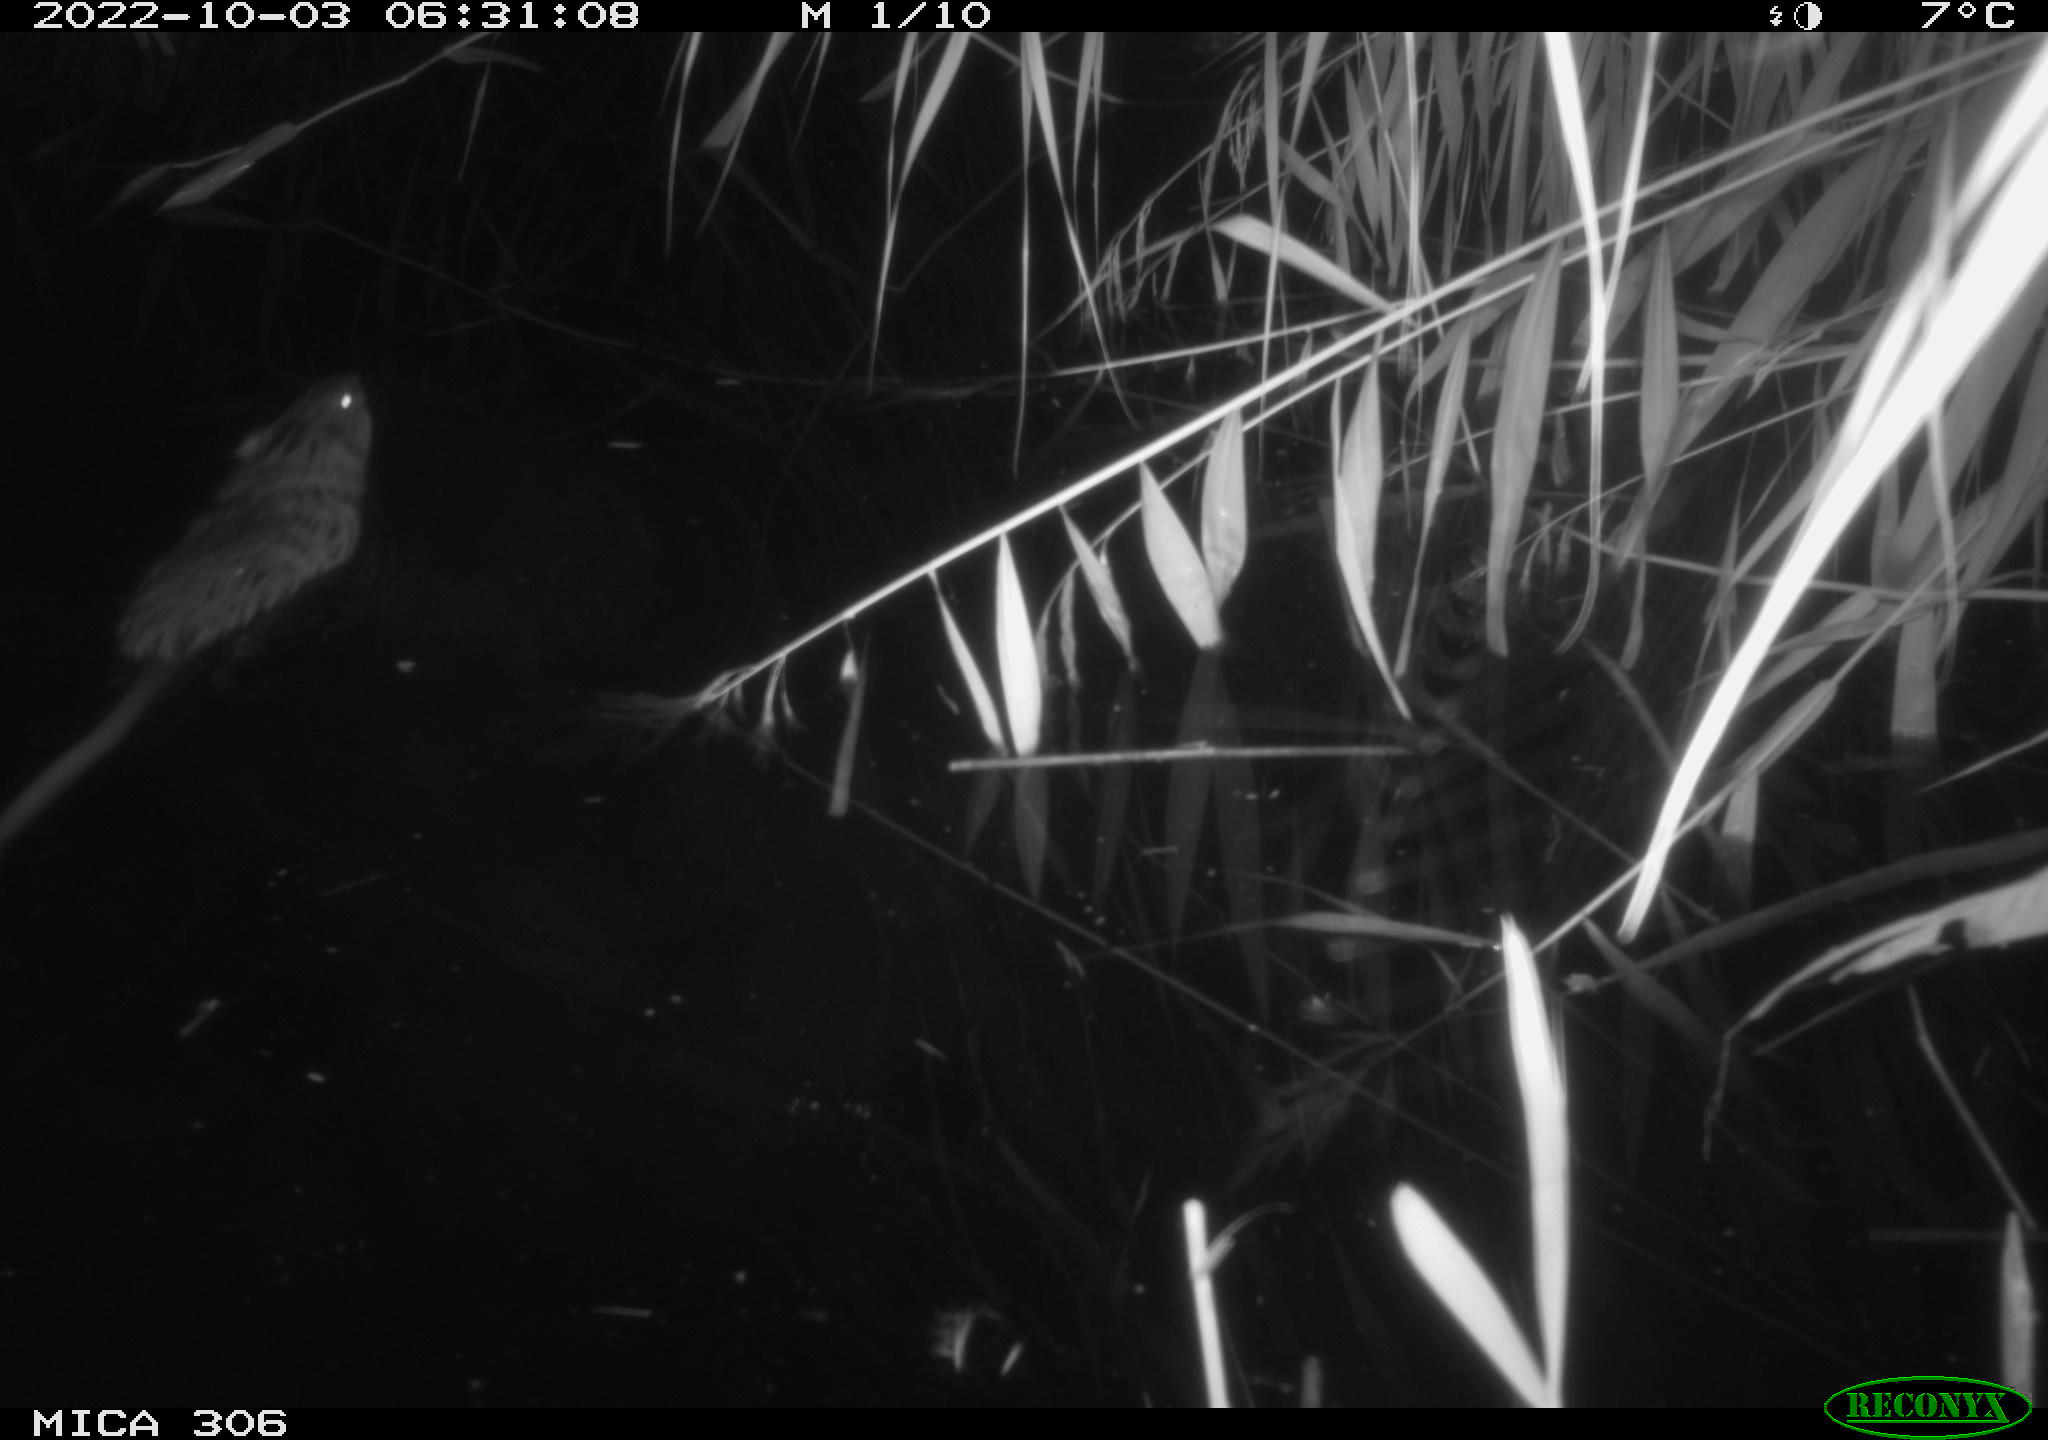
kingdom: Animalia
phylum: Chordata
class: Mammalia
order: Rodentia
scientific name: Rodentia
